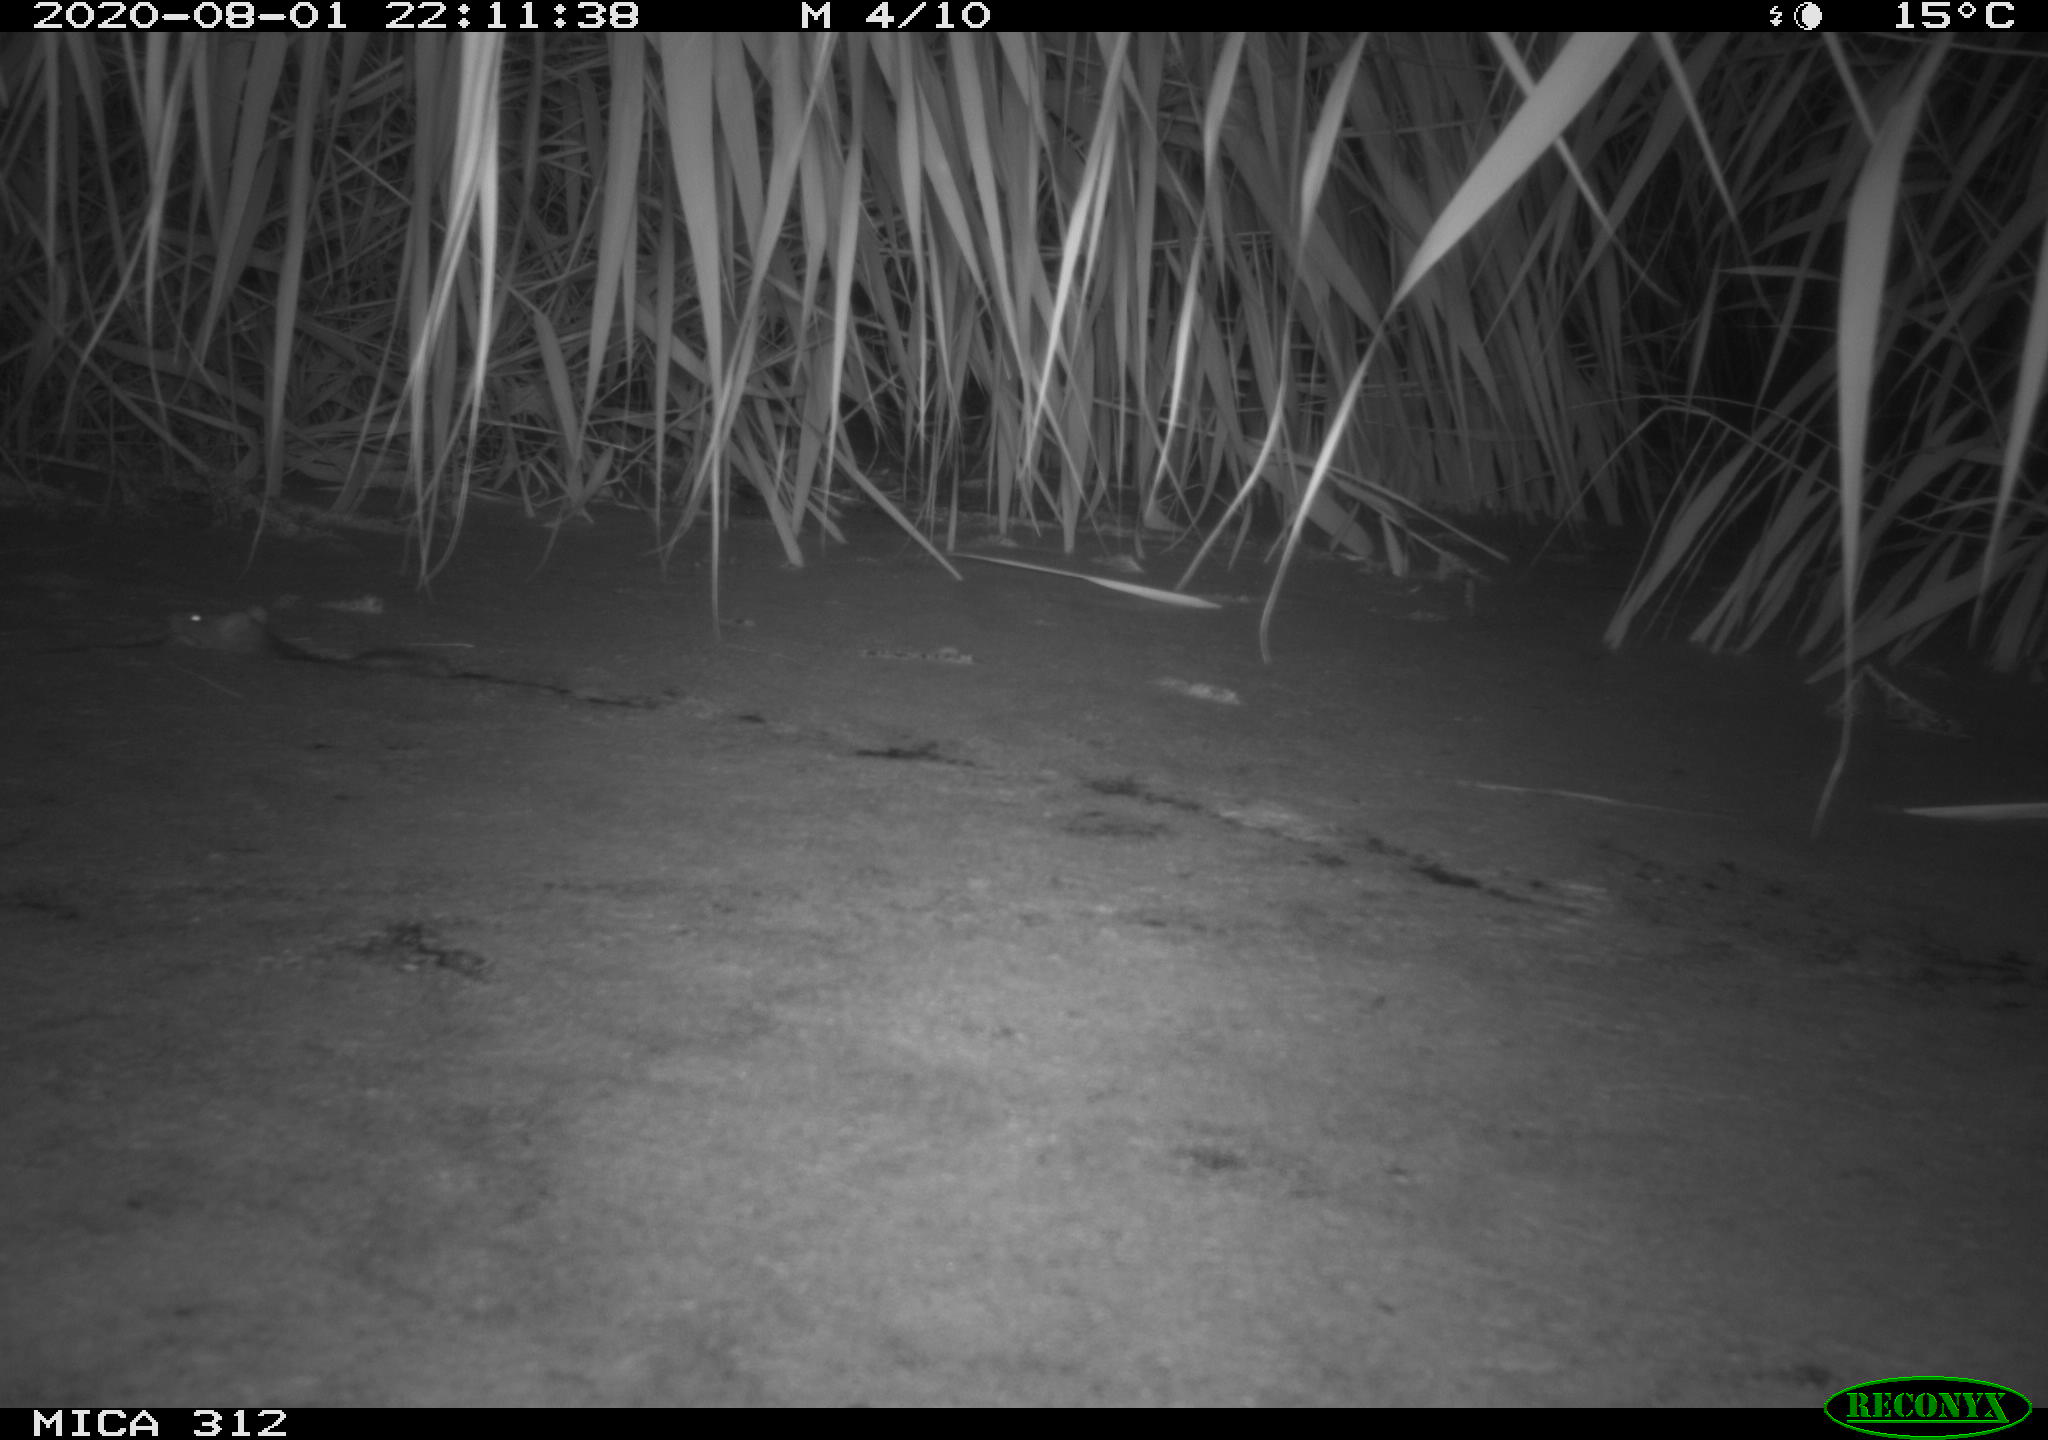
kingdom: Animalia
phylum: Chordata
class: Mammalia
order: Rodentia
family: Muridae
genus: Rattus
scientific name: Rattus norvegicus
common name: Brown rat
